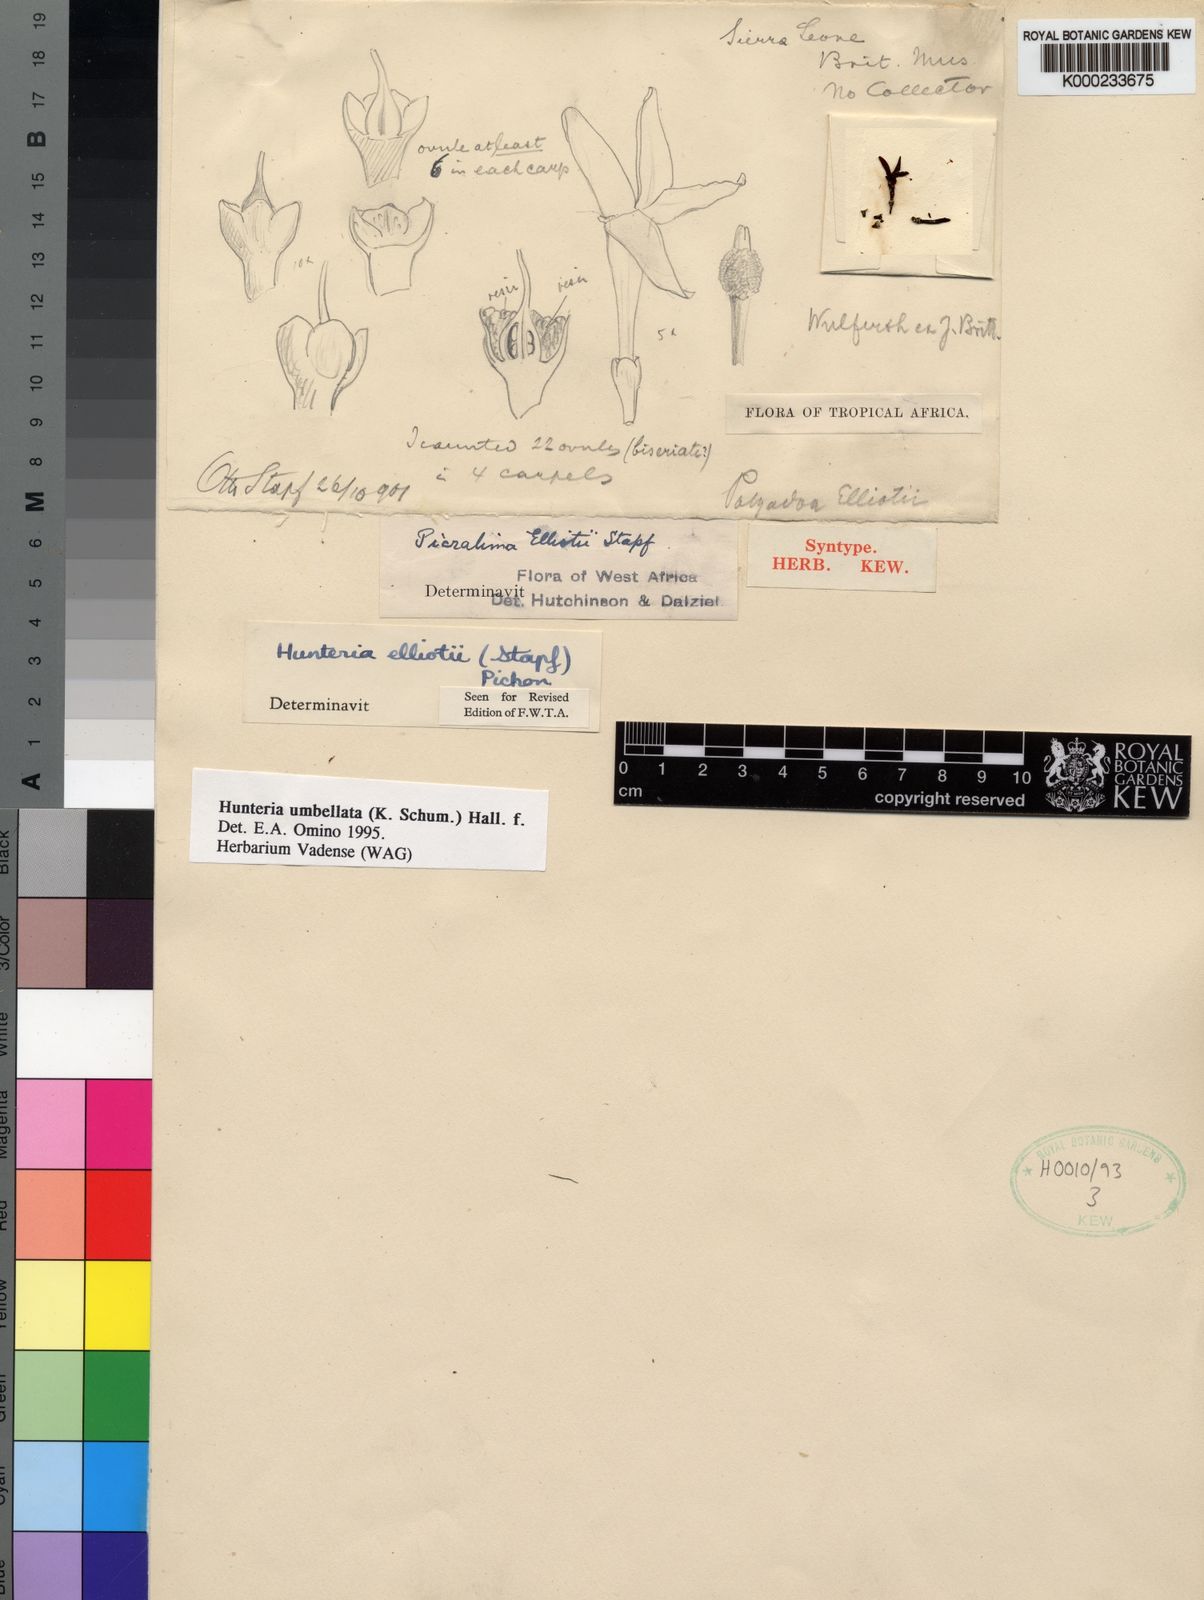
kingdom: Plantae
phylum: Tracheophyta
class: Magnoliopsida
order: Gentianales
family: Apocynaceae
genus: Hunteria
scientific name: Hunteria umbellata
